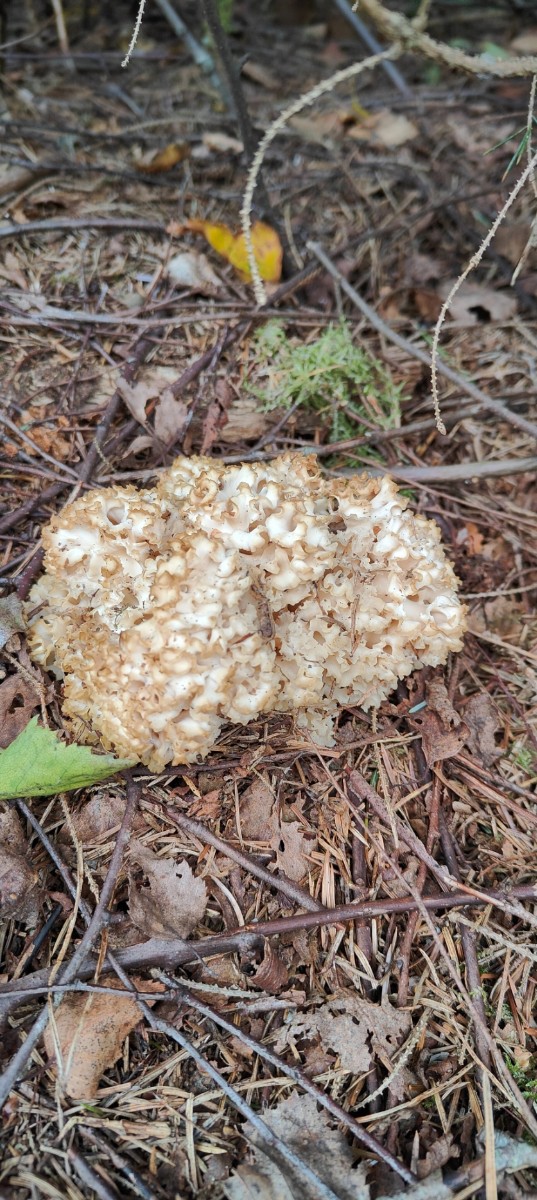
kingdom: Fungi
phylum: Basidiomycota
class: Agaricomycetes
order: Polyporales
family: Sparassidaceae
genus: Sparassis
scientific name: Sparassis crispa
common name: kruset blomkålssvamp
